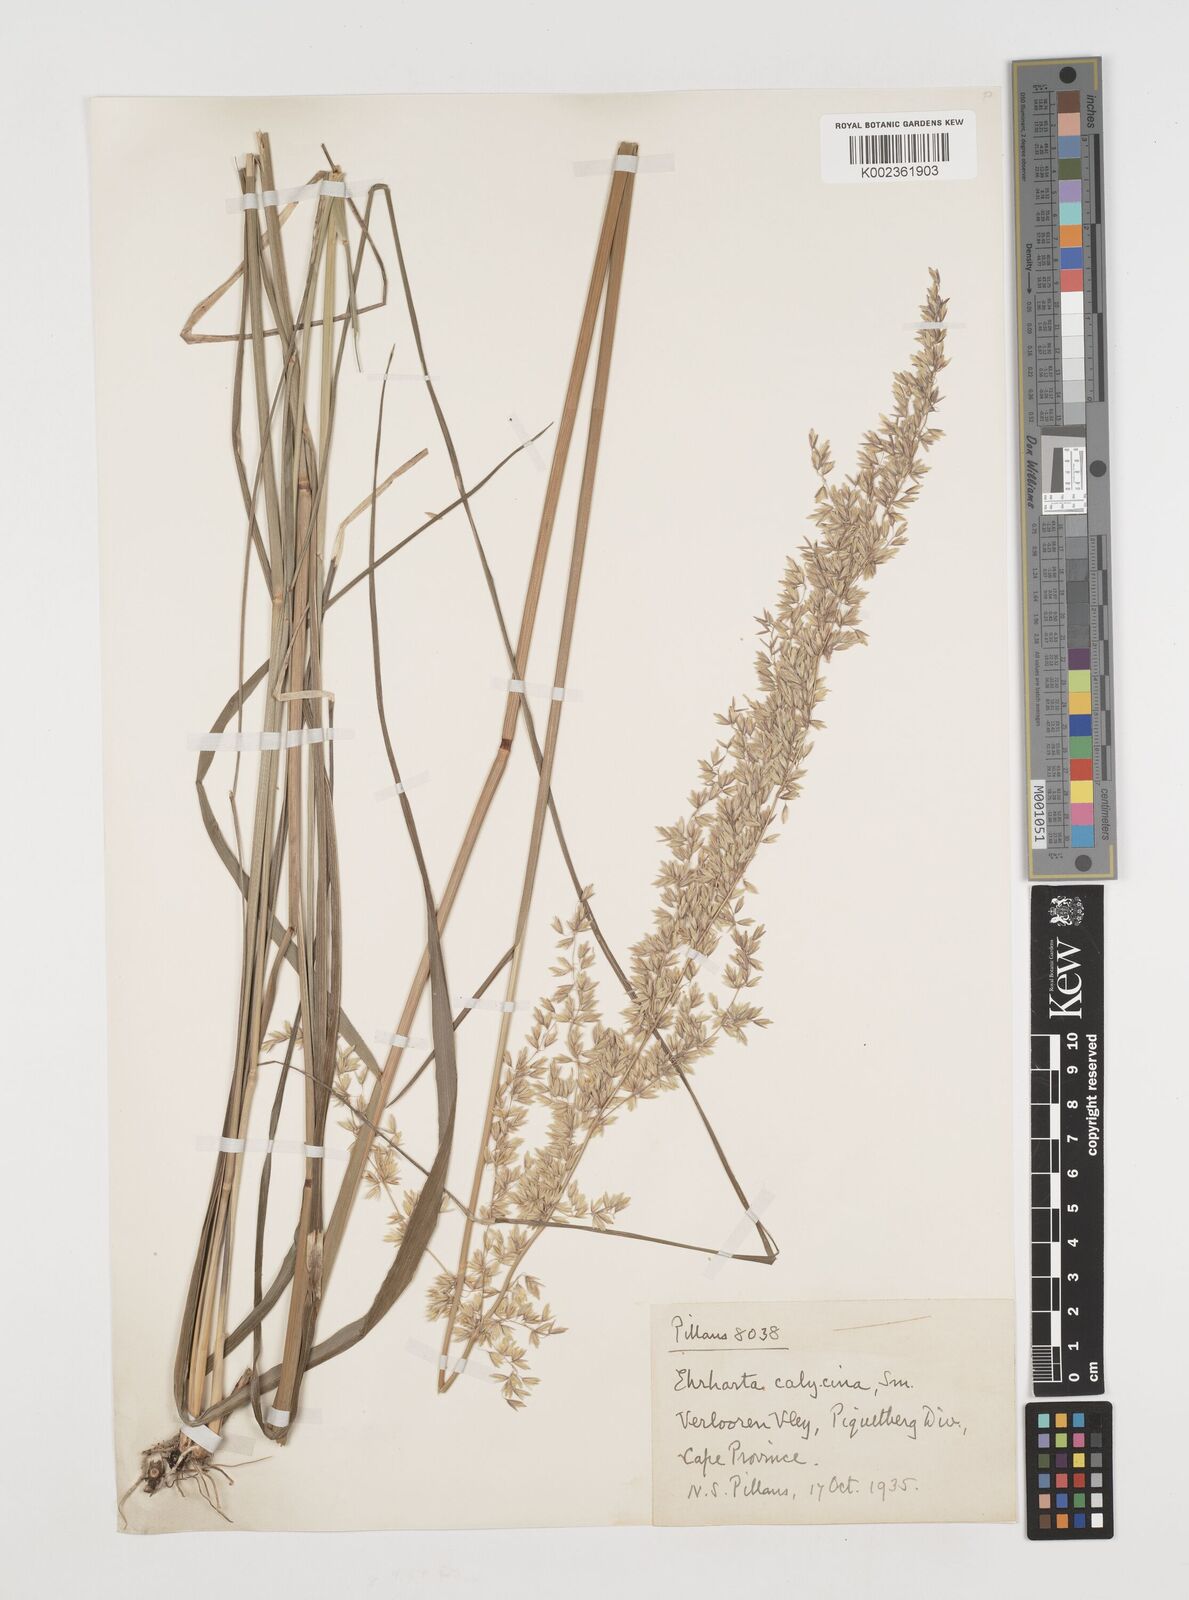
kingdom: Plantae
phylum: Tracheophyta
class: Liliopsida
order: Poales
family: Poaceae
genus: Ehrharta
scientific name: Ehrharta calycina
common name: Perennial veldtgrass
